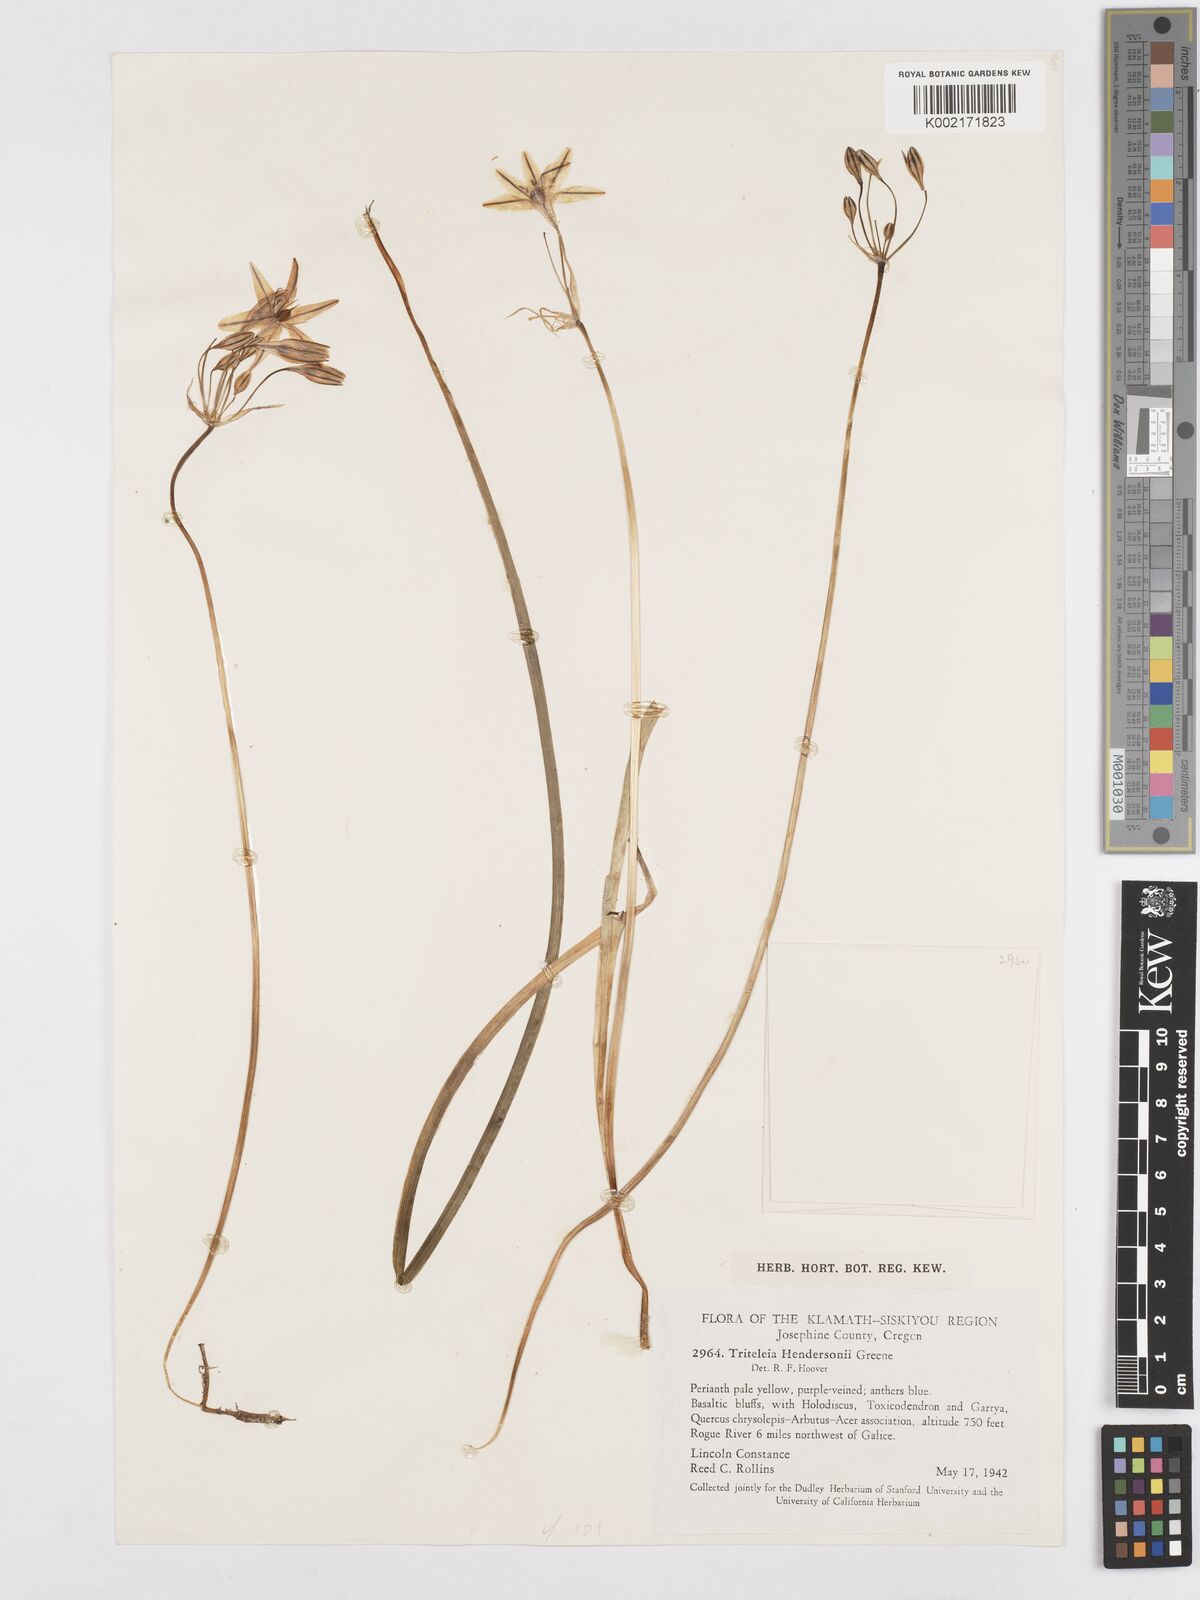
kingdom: Plantae
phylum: Tracheophyta
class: Liliopsida
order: Asparagales
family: Asparagaceae
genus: Triteleia
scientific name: Triteleia hendersonii
